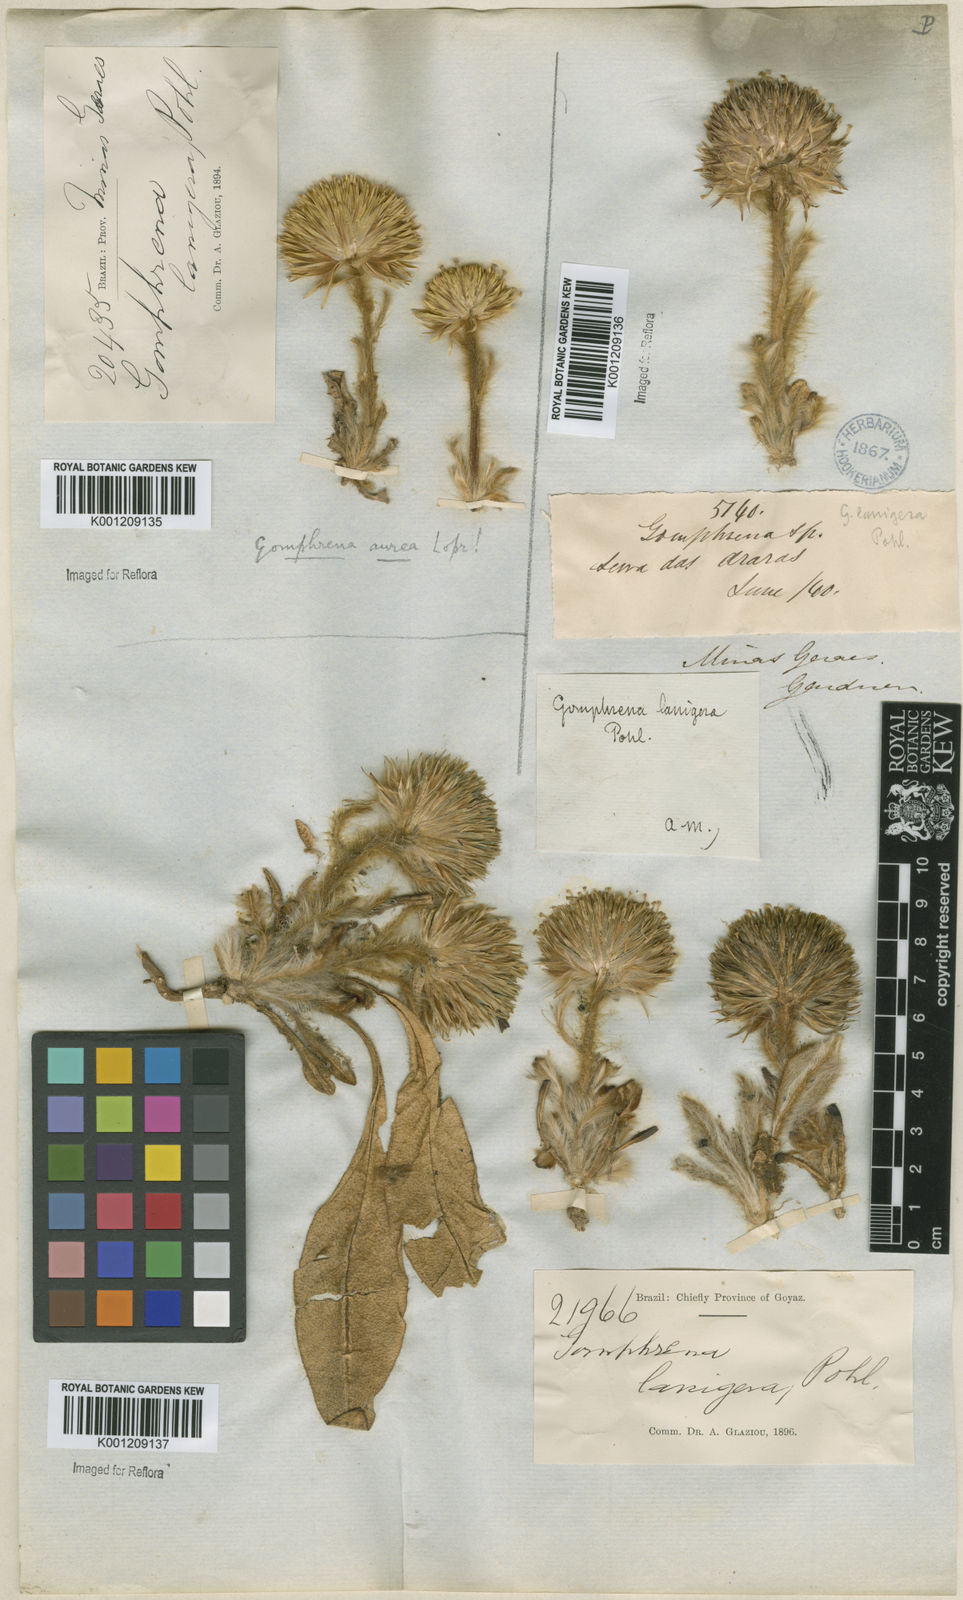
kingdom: Plantae
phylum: Tracheophyta
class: Magnoliopsida
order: Caryophyllales
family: Amaranthaceae
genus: Gomphrena
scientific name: Gomphrena lanigera
